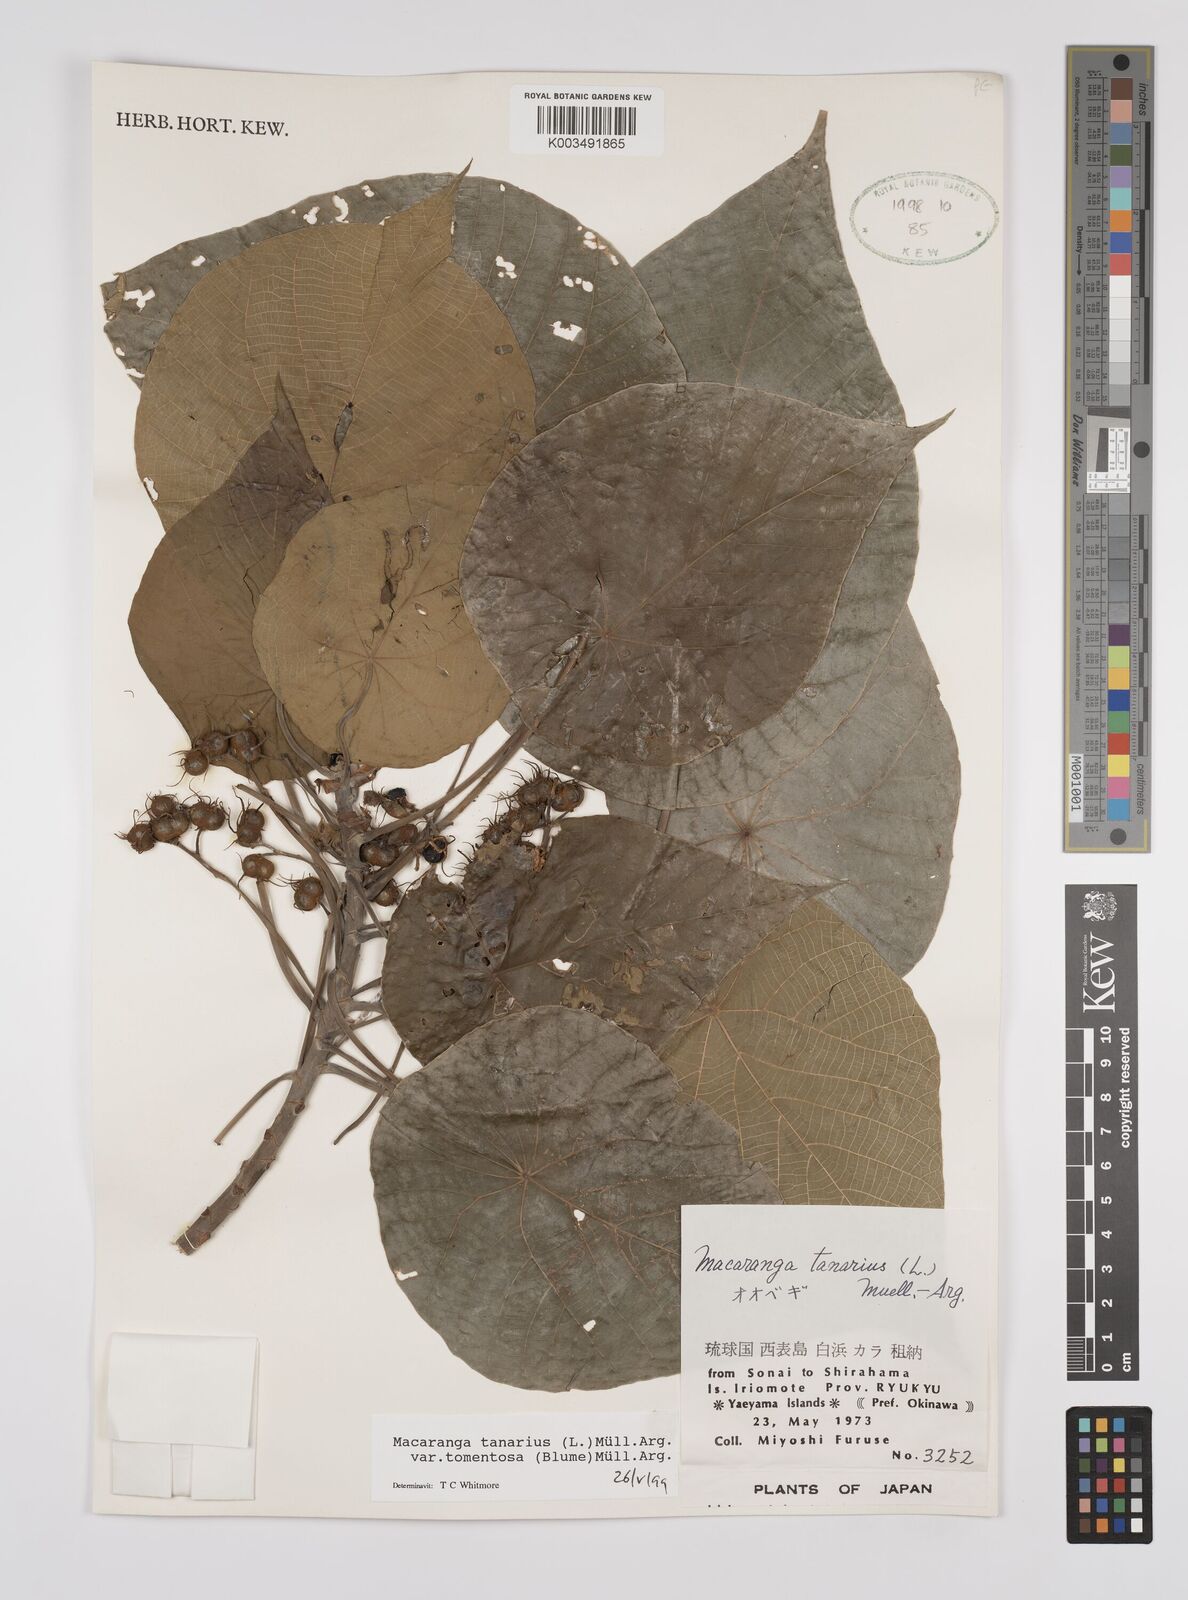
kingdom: Plantae
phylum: Tracheophyta
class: Magnoliopsida
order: Malpighiales
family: Euphorbiaceae
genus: Macaranga
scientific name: Macaranga tanarius
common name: Parasol leaf tree
